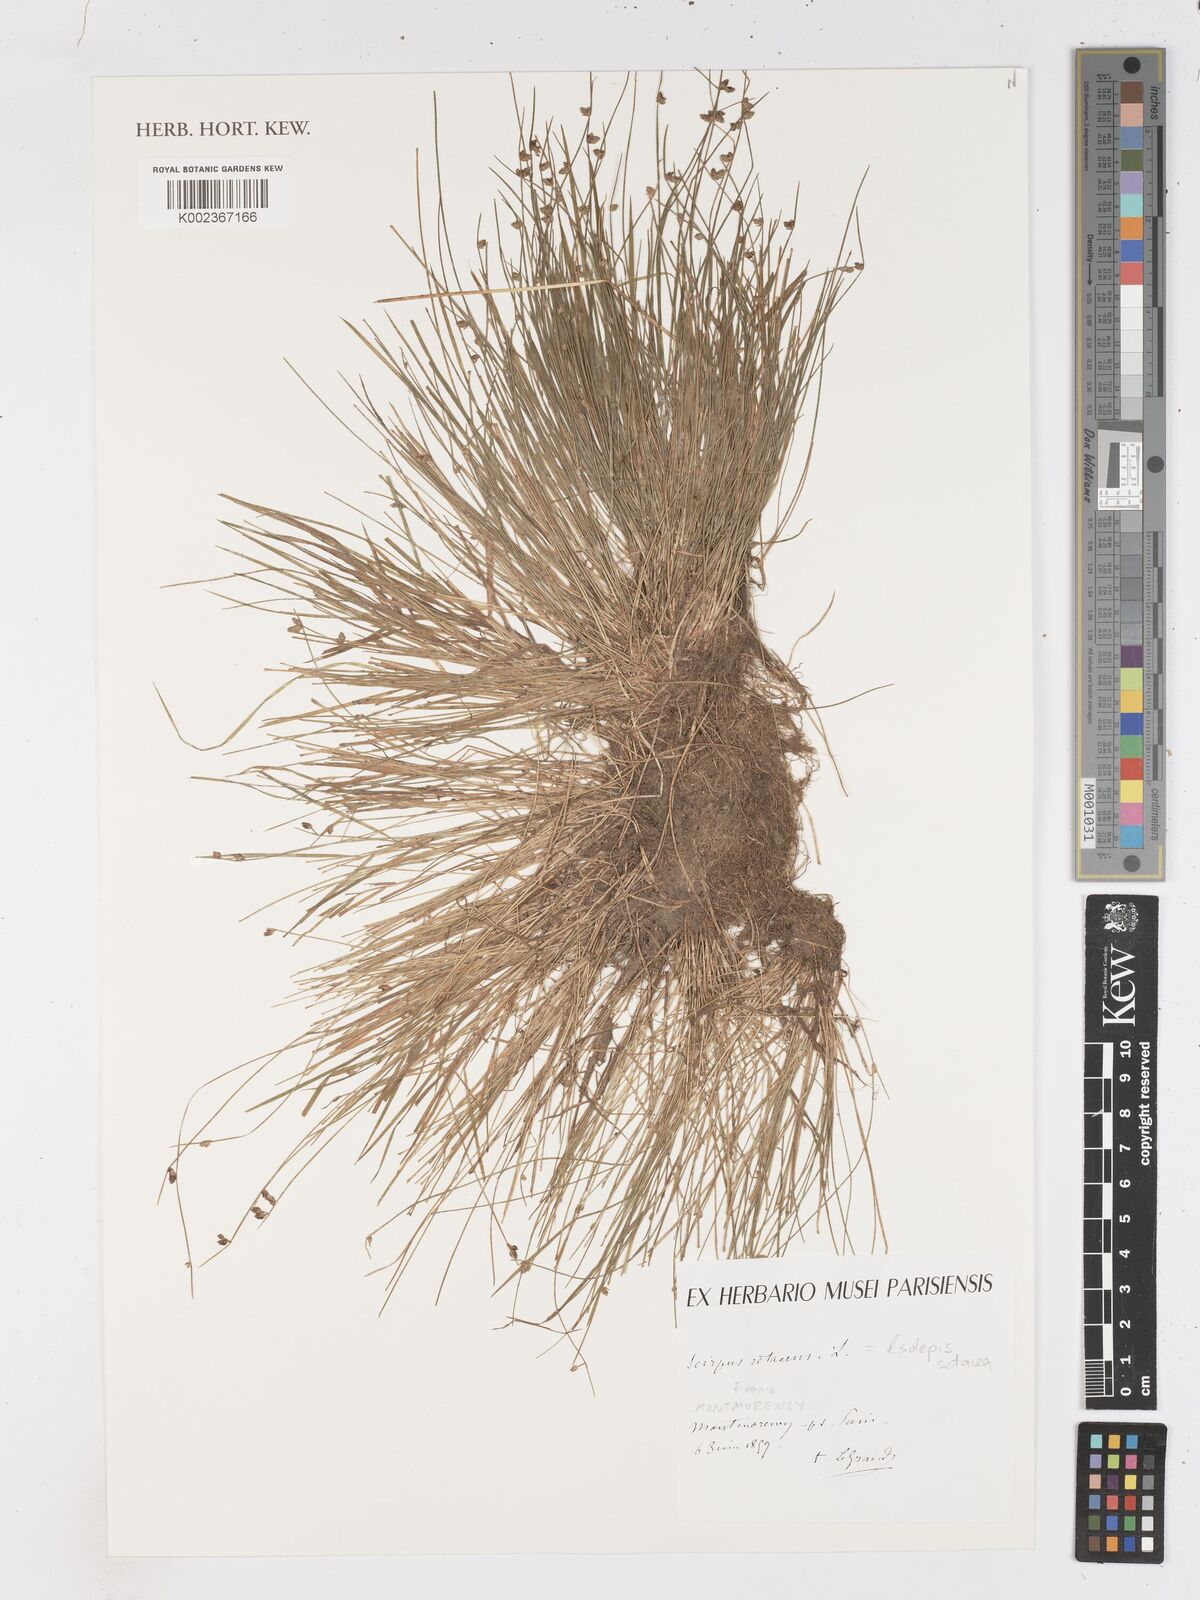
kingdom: Plantae
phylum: Tracheophyta
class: Liliopsida
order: Poales
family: Cyperaceae
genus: Isolepis
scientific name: Isolepis setacea
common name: Bristle club-rush
